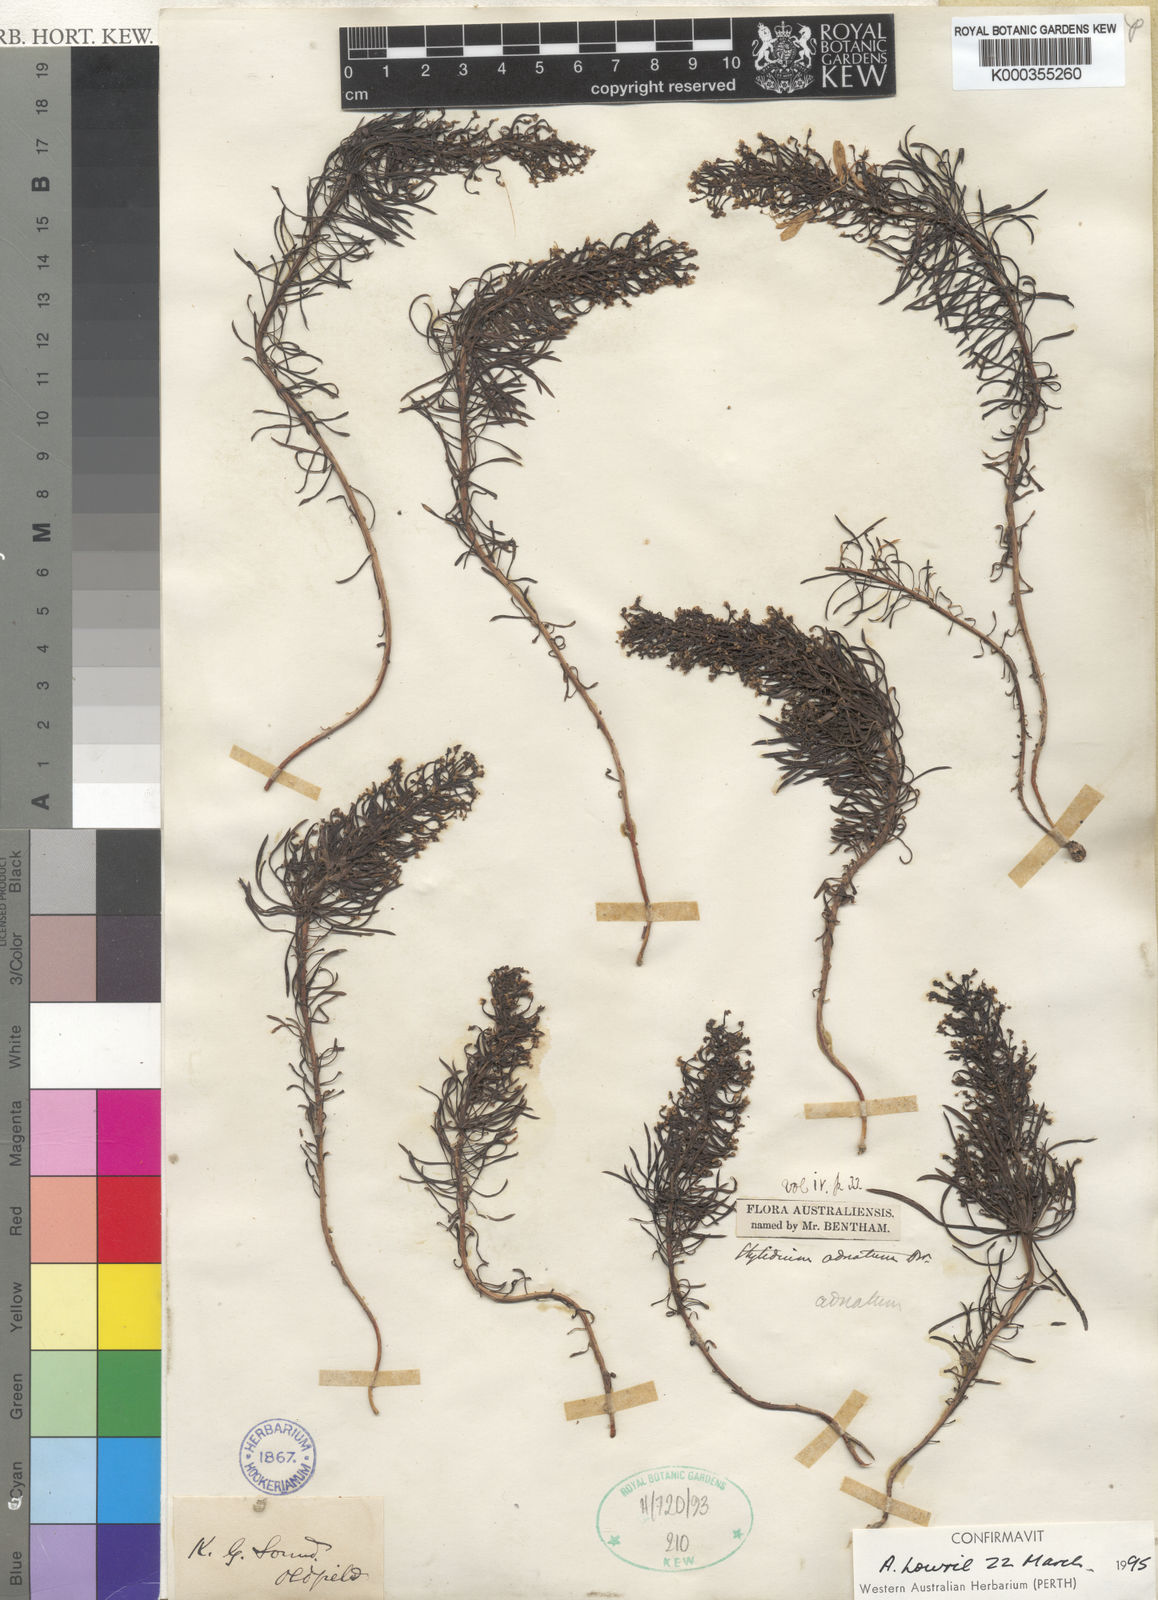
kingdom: Plantae
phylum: Tracheophyta
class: Magnoliopsida
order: Asterales
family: Stylidiaceae
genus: Stylidium
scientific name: Stylidium adnatum
